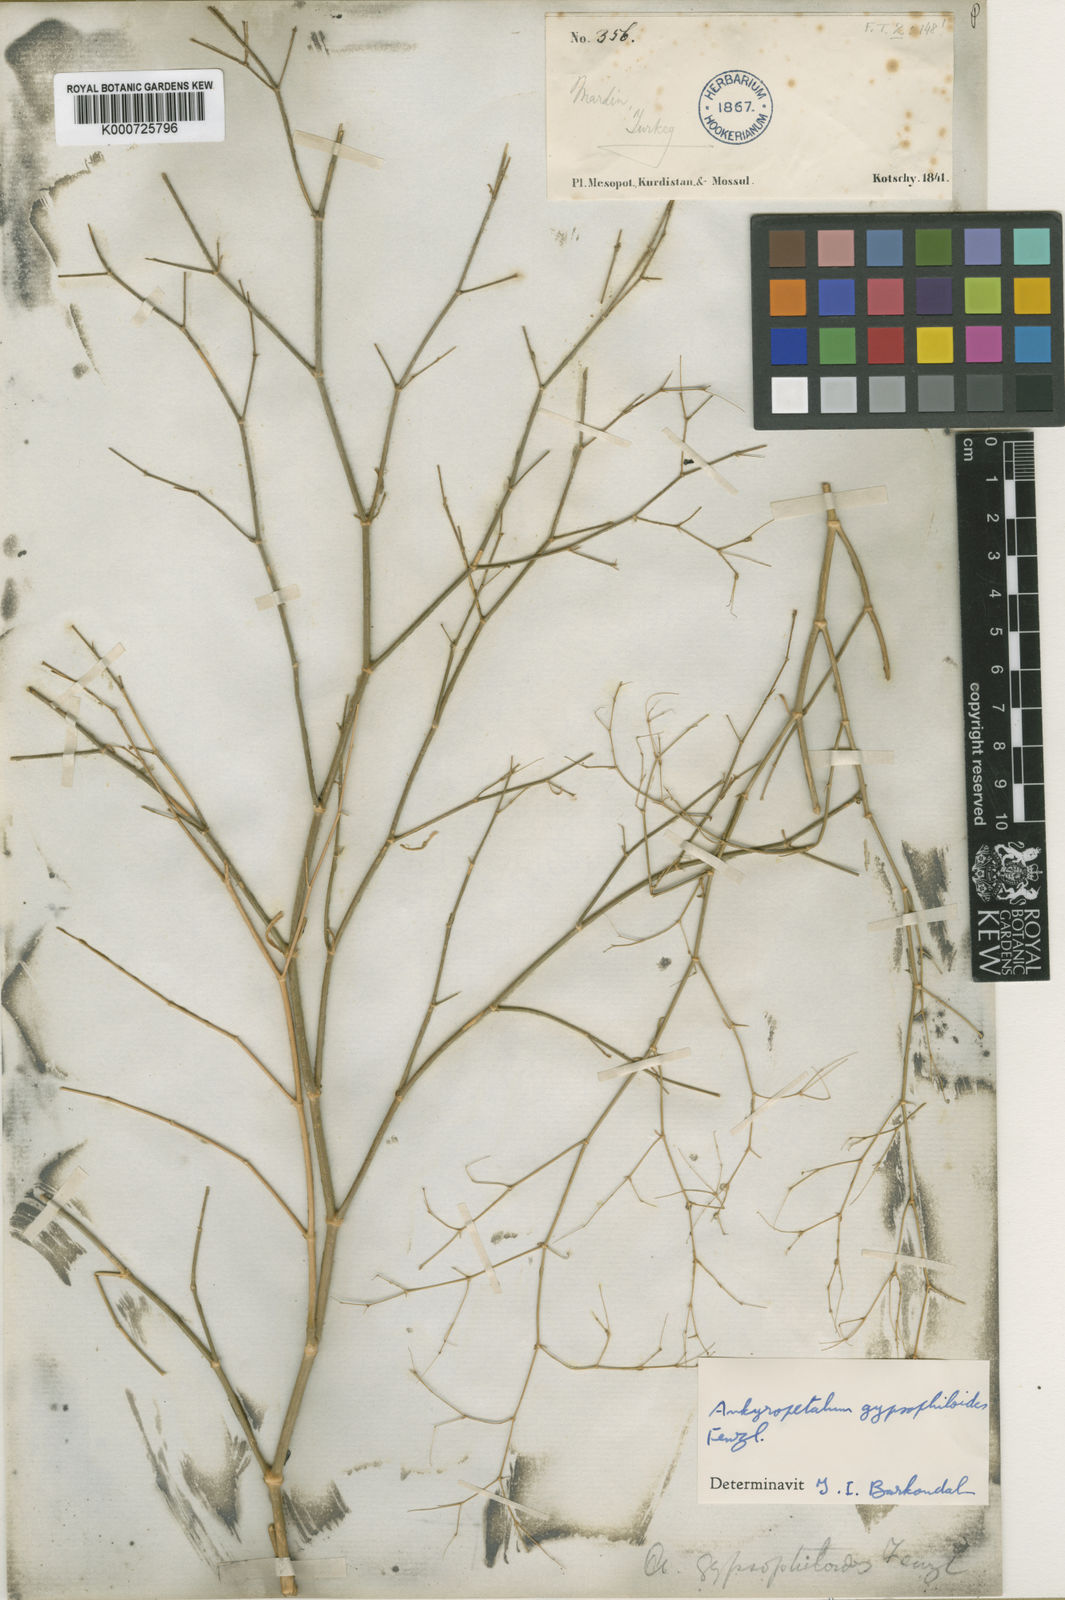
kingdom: Plantae
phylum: Tracheophyta
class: Magnoliopsida
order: Caryophyllales
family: Caryophyllaceae
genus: Mesostemma
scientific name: Mesostemma gypsophiloides
